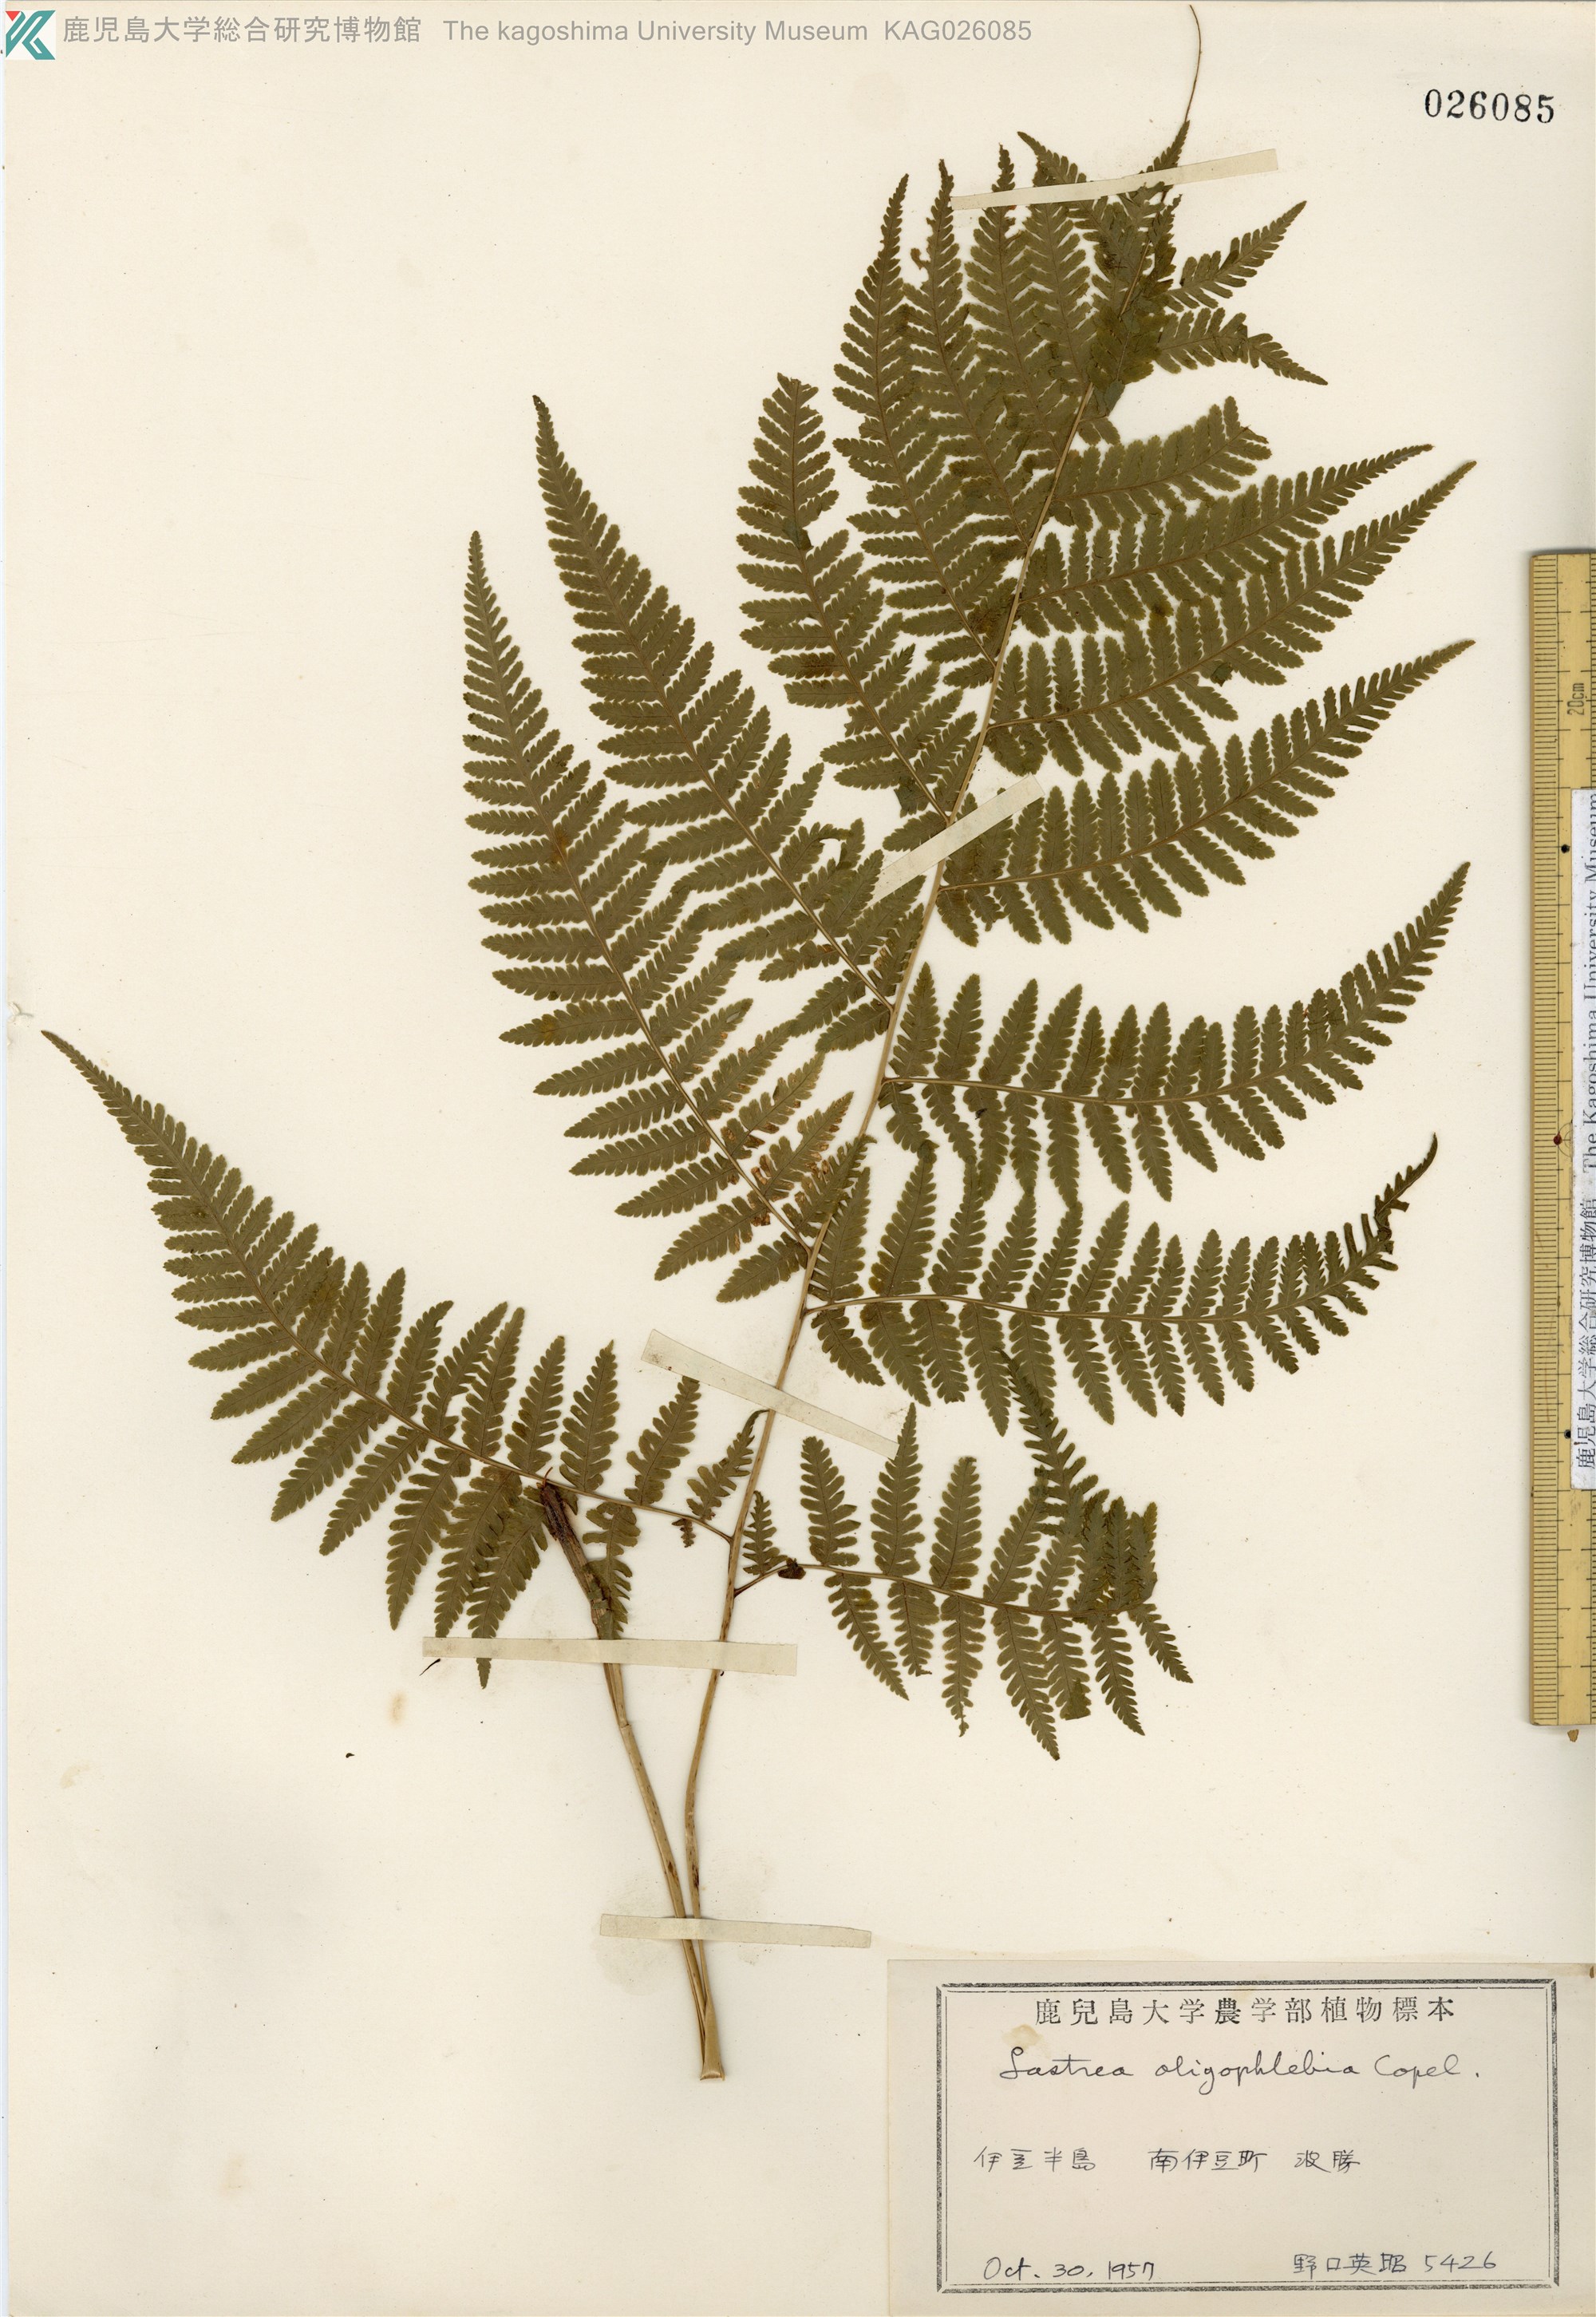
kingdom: Plantae
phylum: Tracheophyta
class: Polypodiopsida
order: Polypodiales
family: Thelypteridaceae
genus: Macrothelypteris
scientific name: Macrothelypteris oligophlebia
